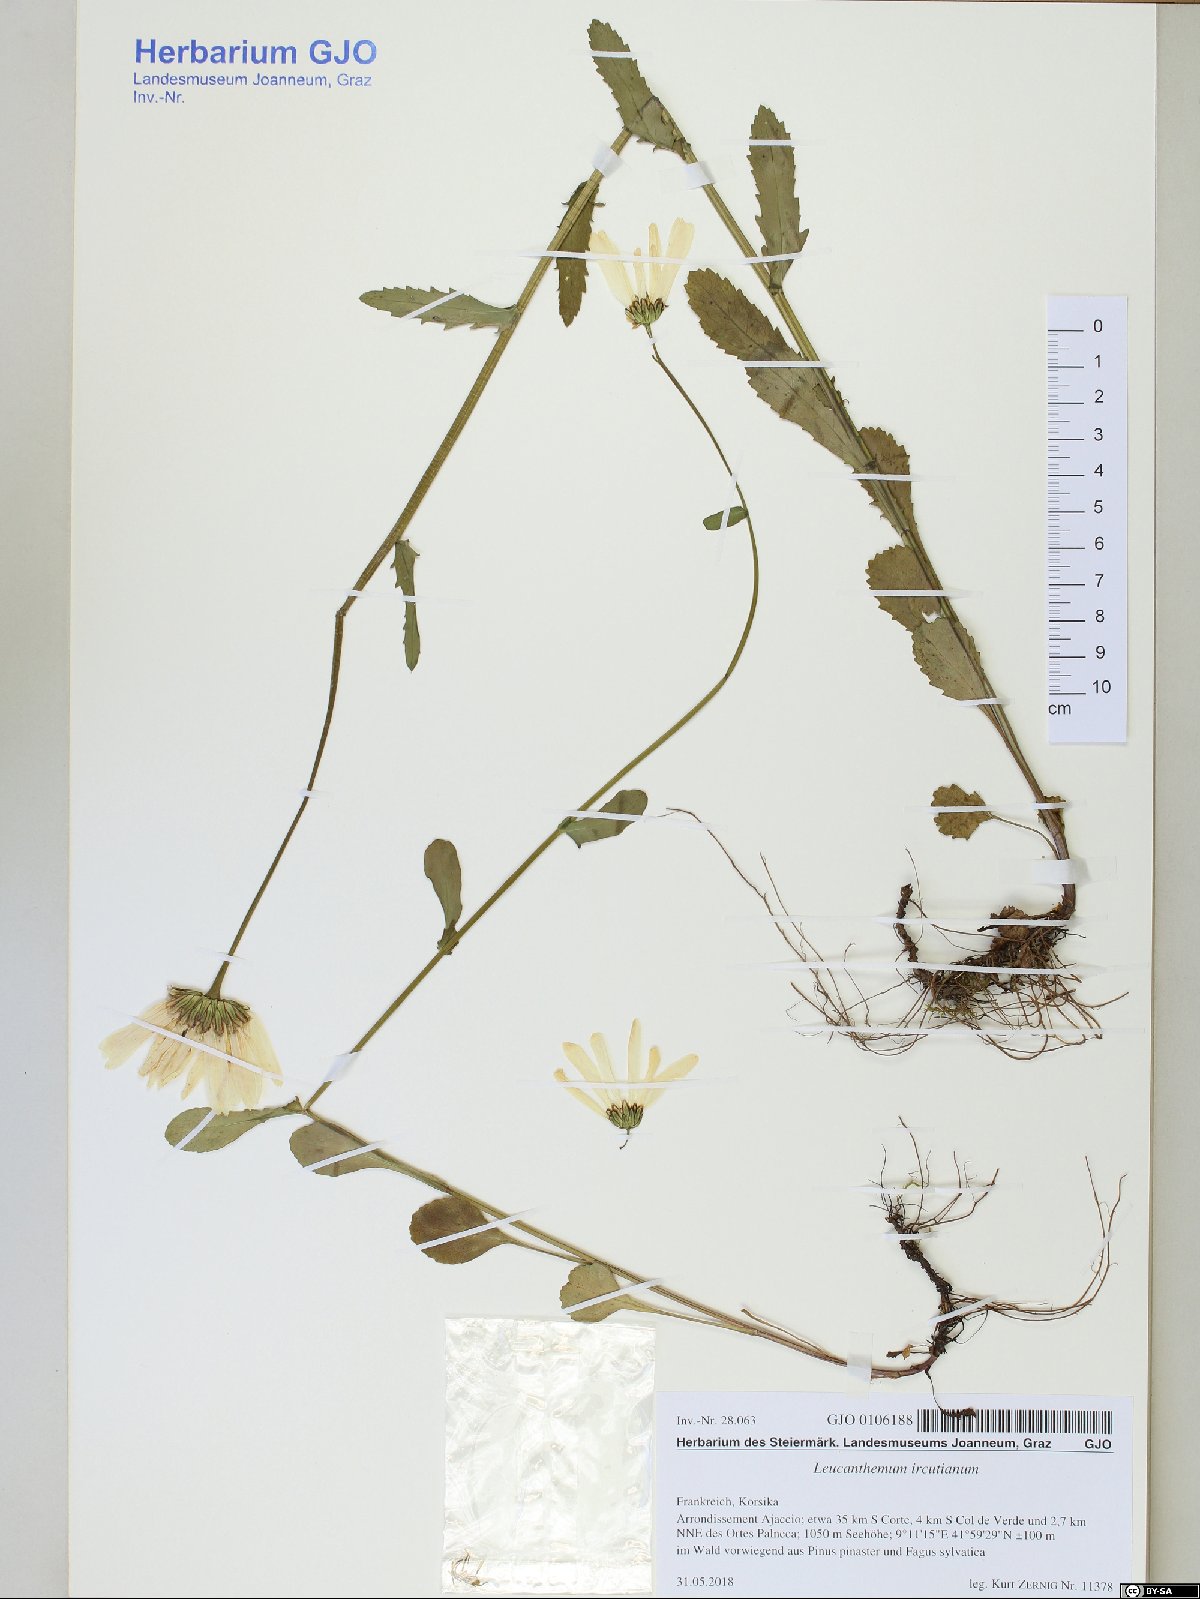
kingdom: Plantae
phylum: Tracheophyta
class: Magnoliopsida
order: Asterales
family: Asteraceae
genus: Leucanthemum
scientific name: Leucanthemum ircutianum
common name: Daisy
